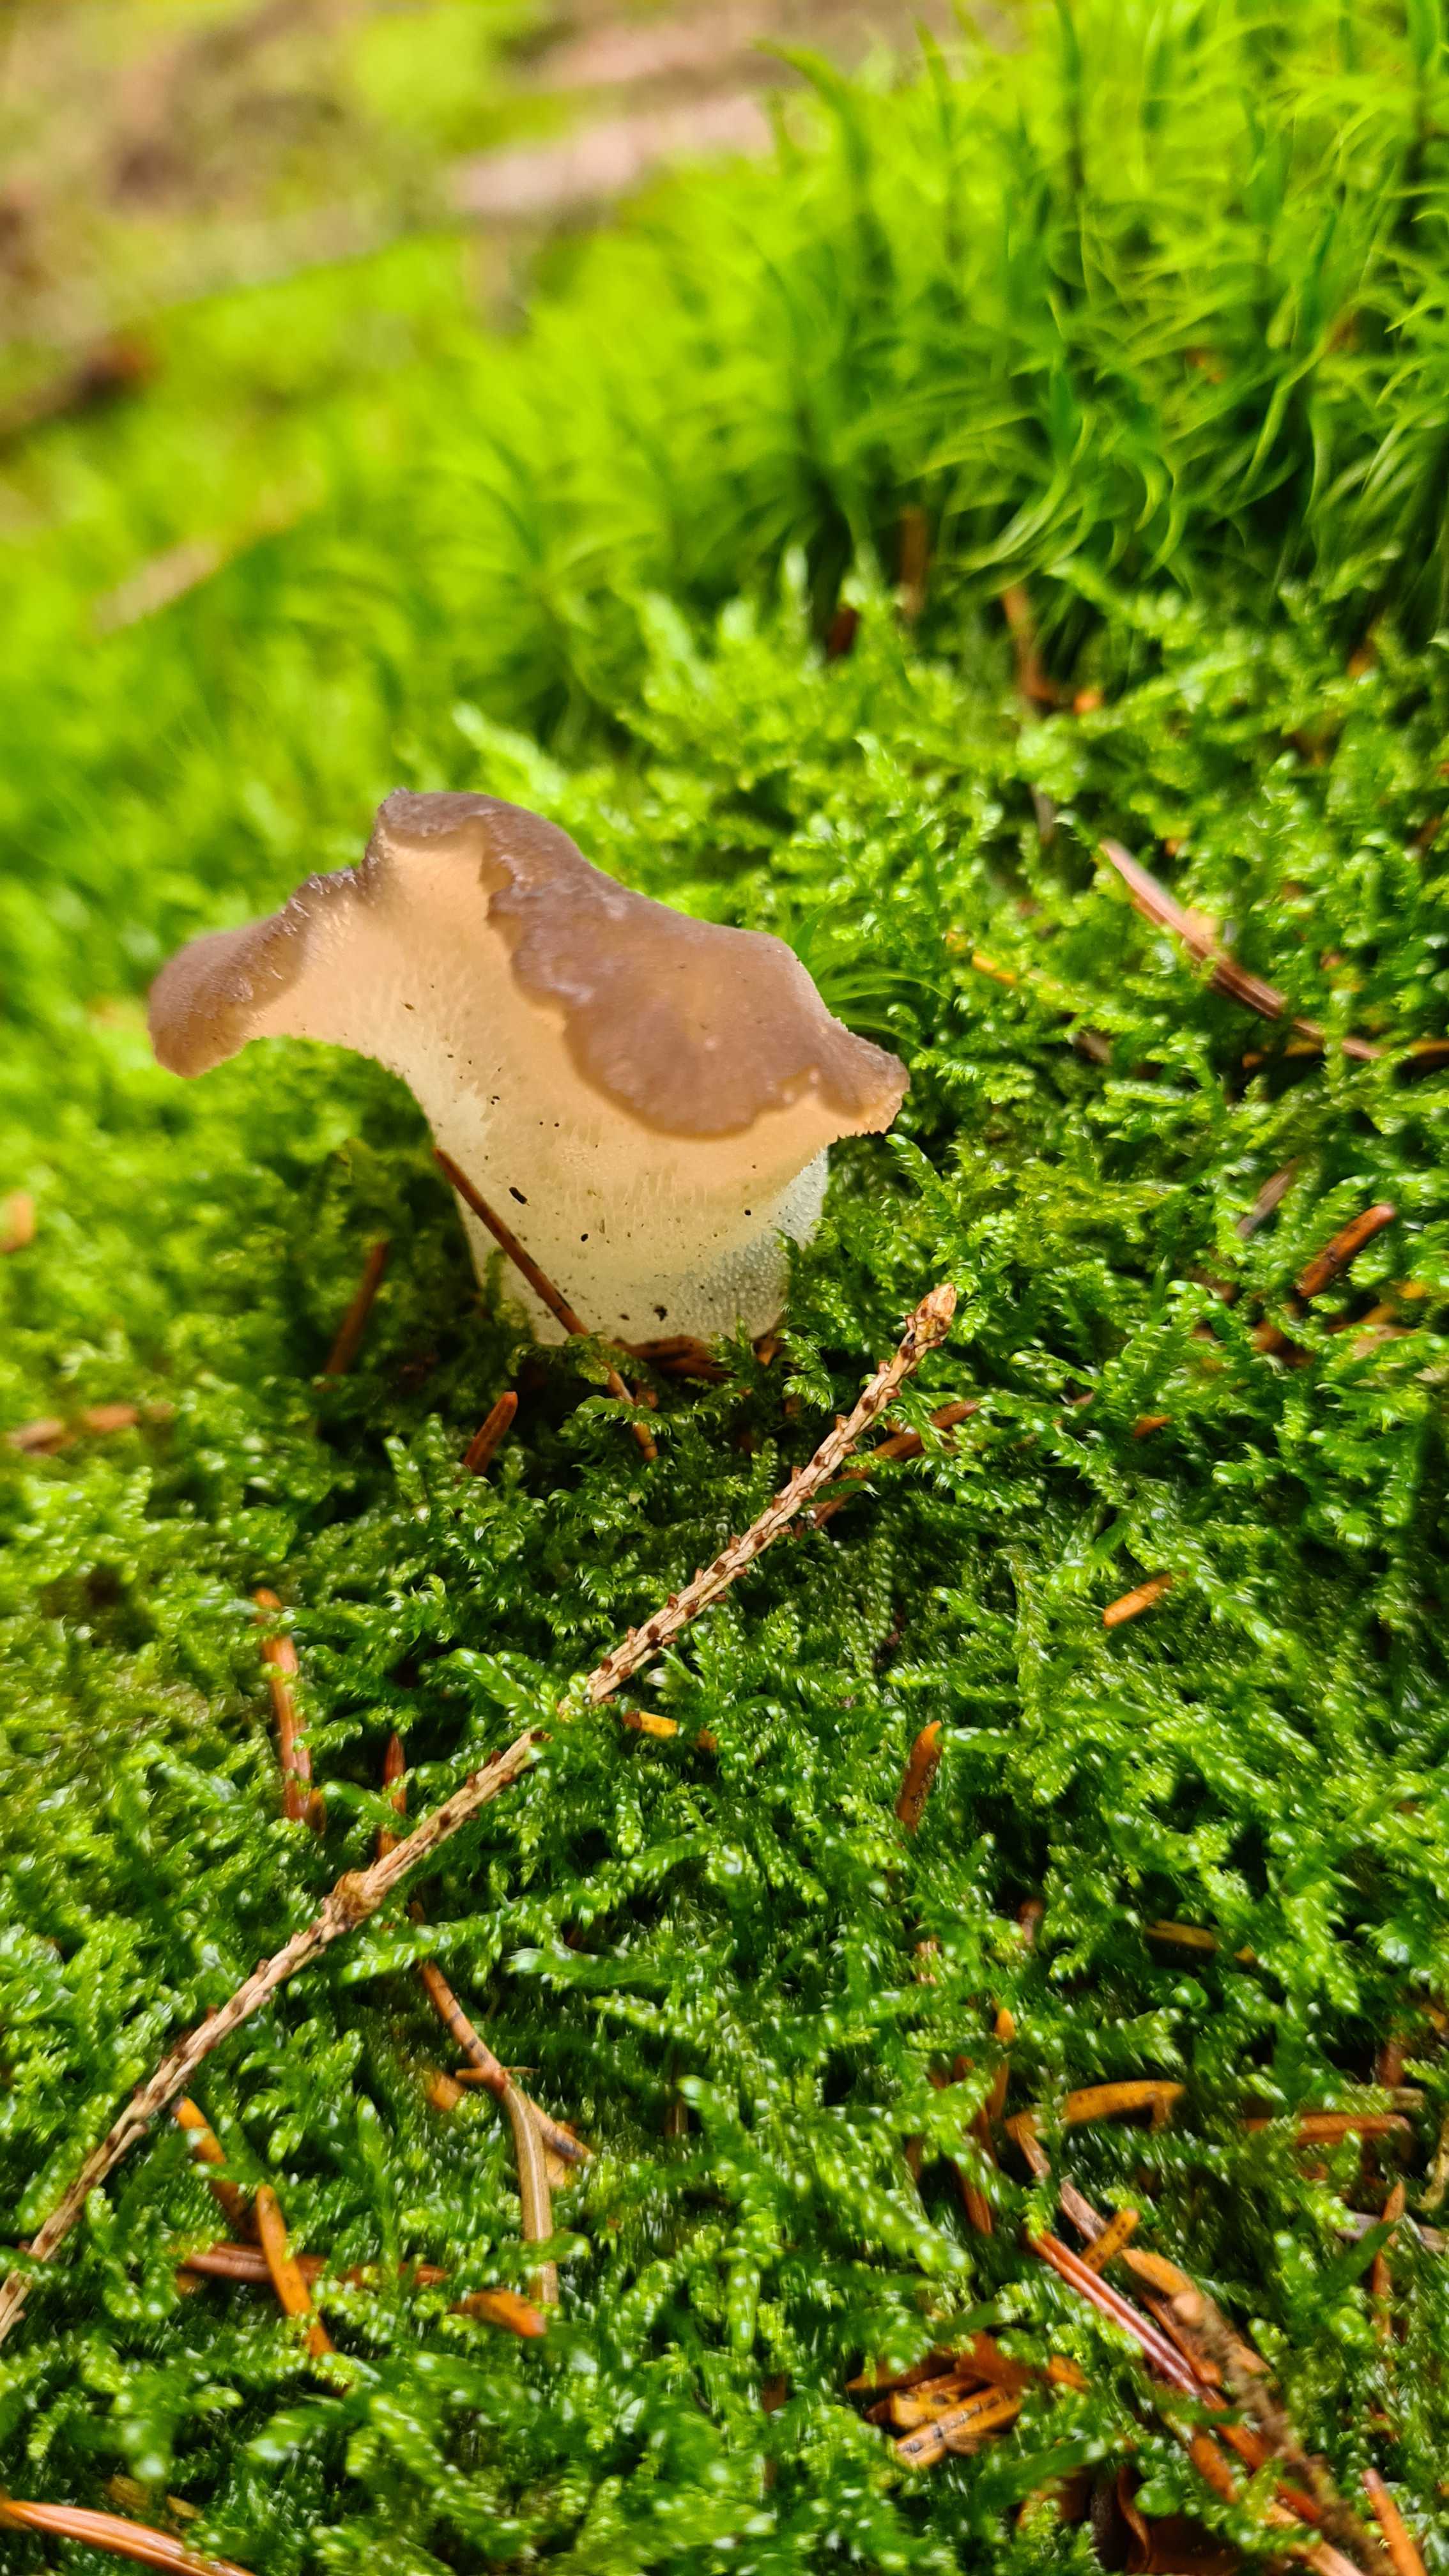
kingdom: Fungi
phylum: Basidiomycota
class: Agaricomycetes
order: Auriculariales
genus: Pseudohydnum
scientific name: Pseudohydnum gelatinosum
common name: bævretand
